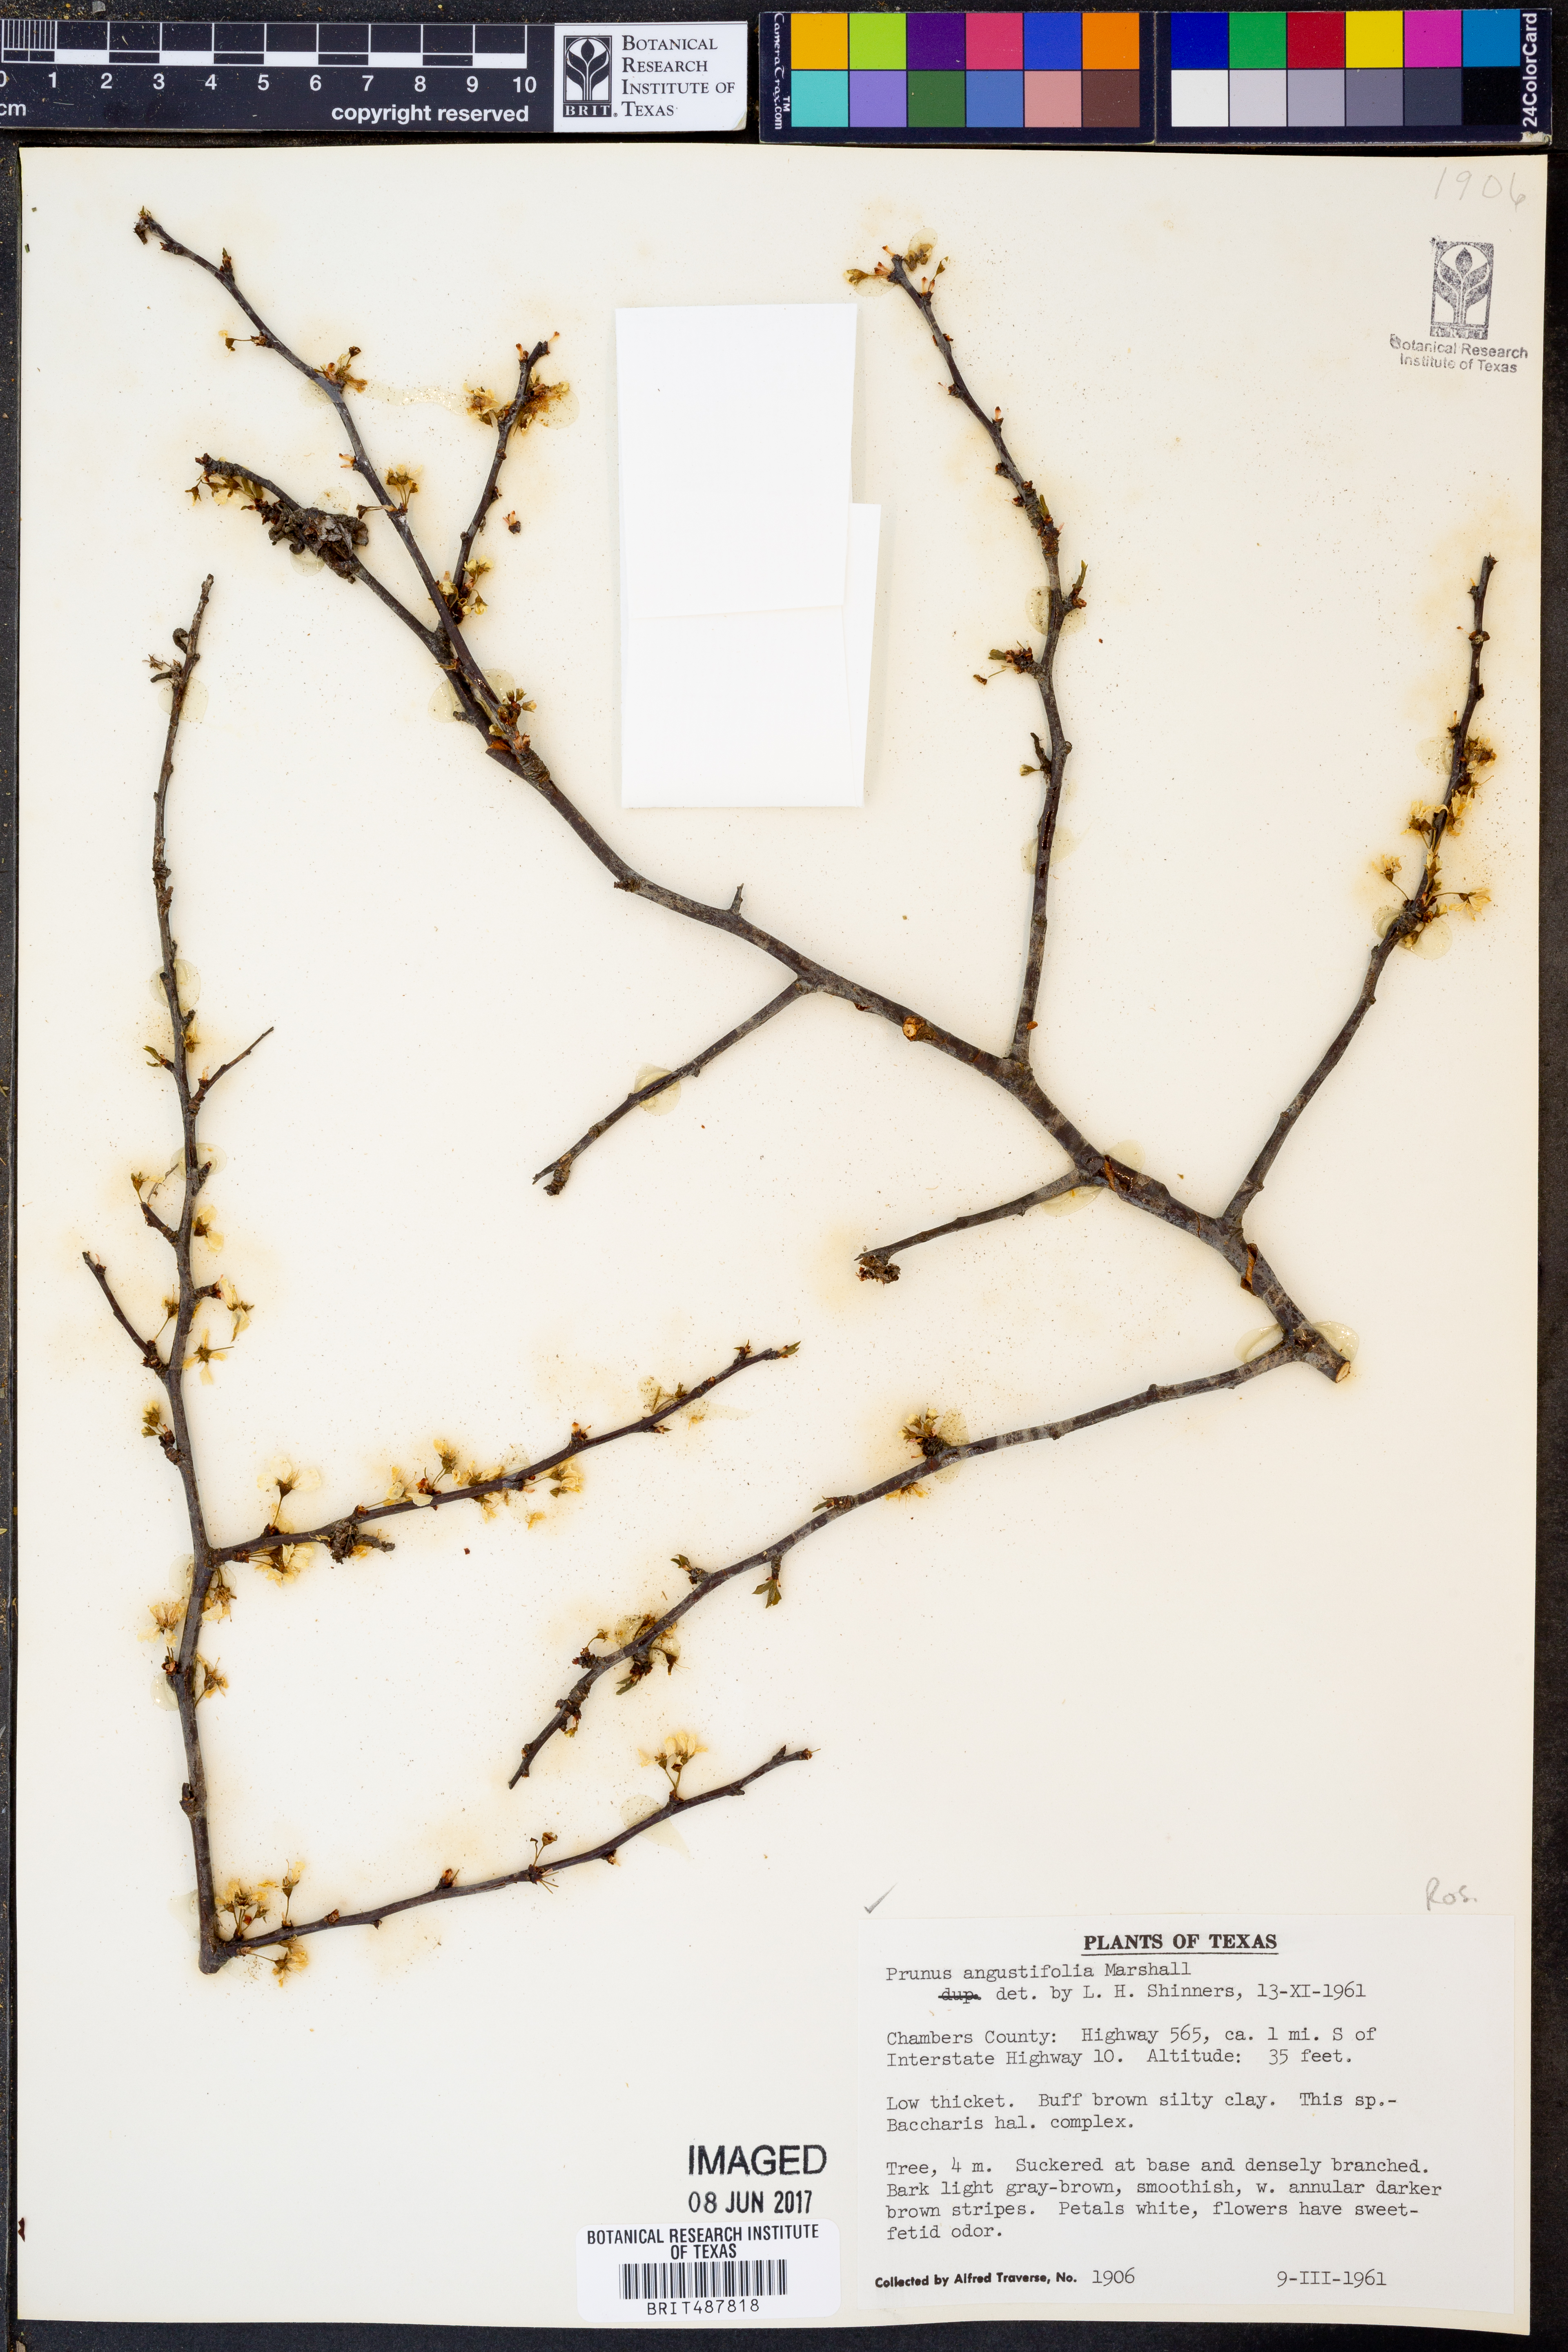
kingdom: Plantae
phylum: Tracheophyta
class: Magnoliopsida
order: Rosales
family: Rosaceae
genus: Prunus
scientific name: Prunus angustifolia
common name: Cherokee plum
